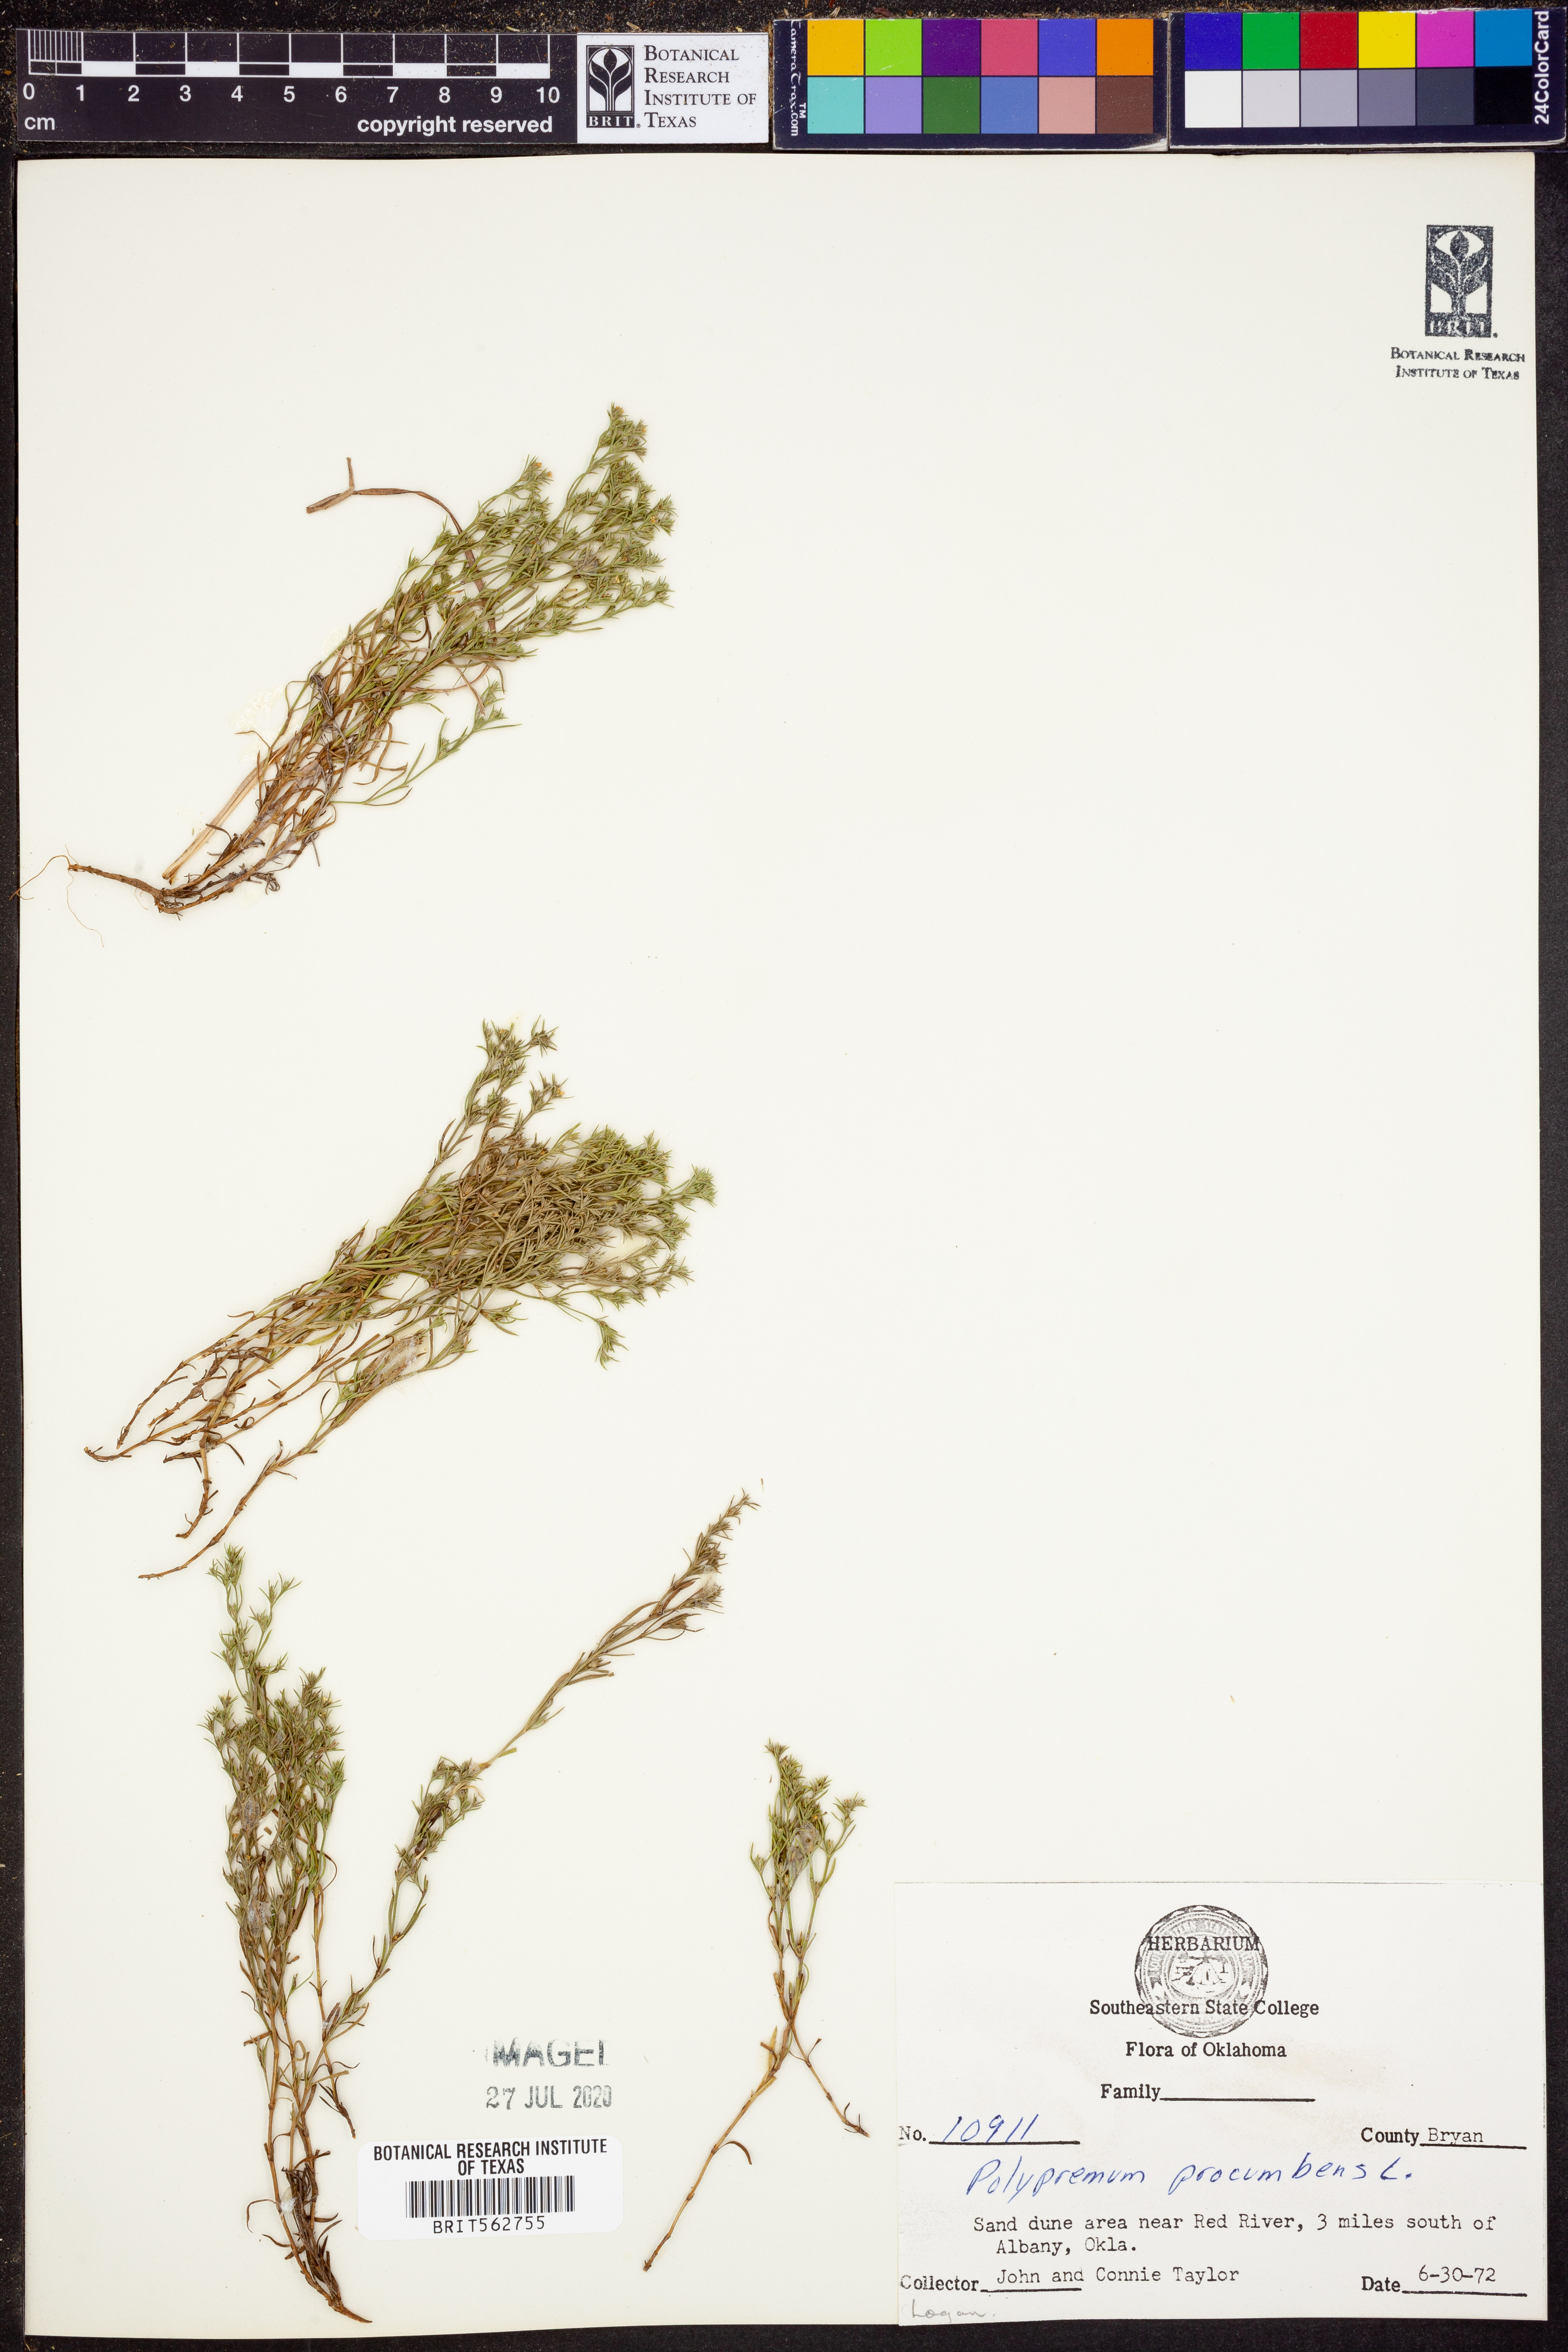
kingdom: Plantae
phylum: Tracheophyta
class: Magnoliopsida
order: Lamiales
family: Tetrachondraceae
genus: Polypremum
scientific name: Polypremum procumbens
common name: Juniper-leaf
